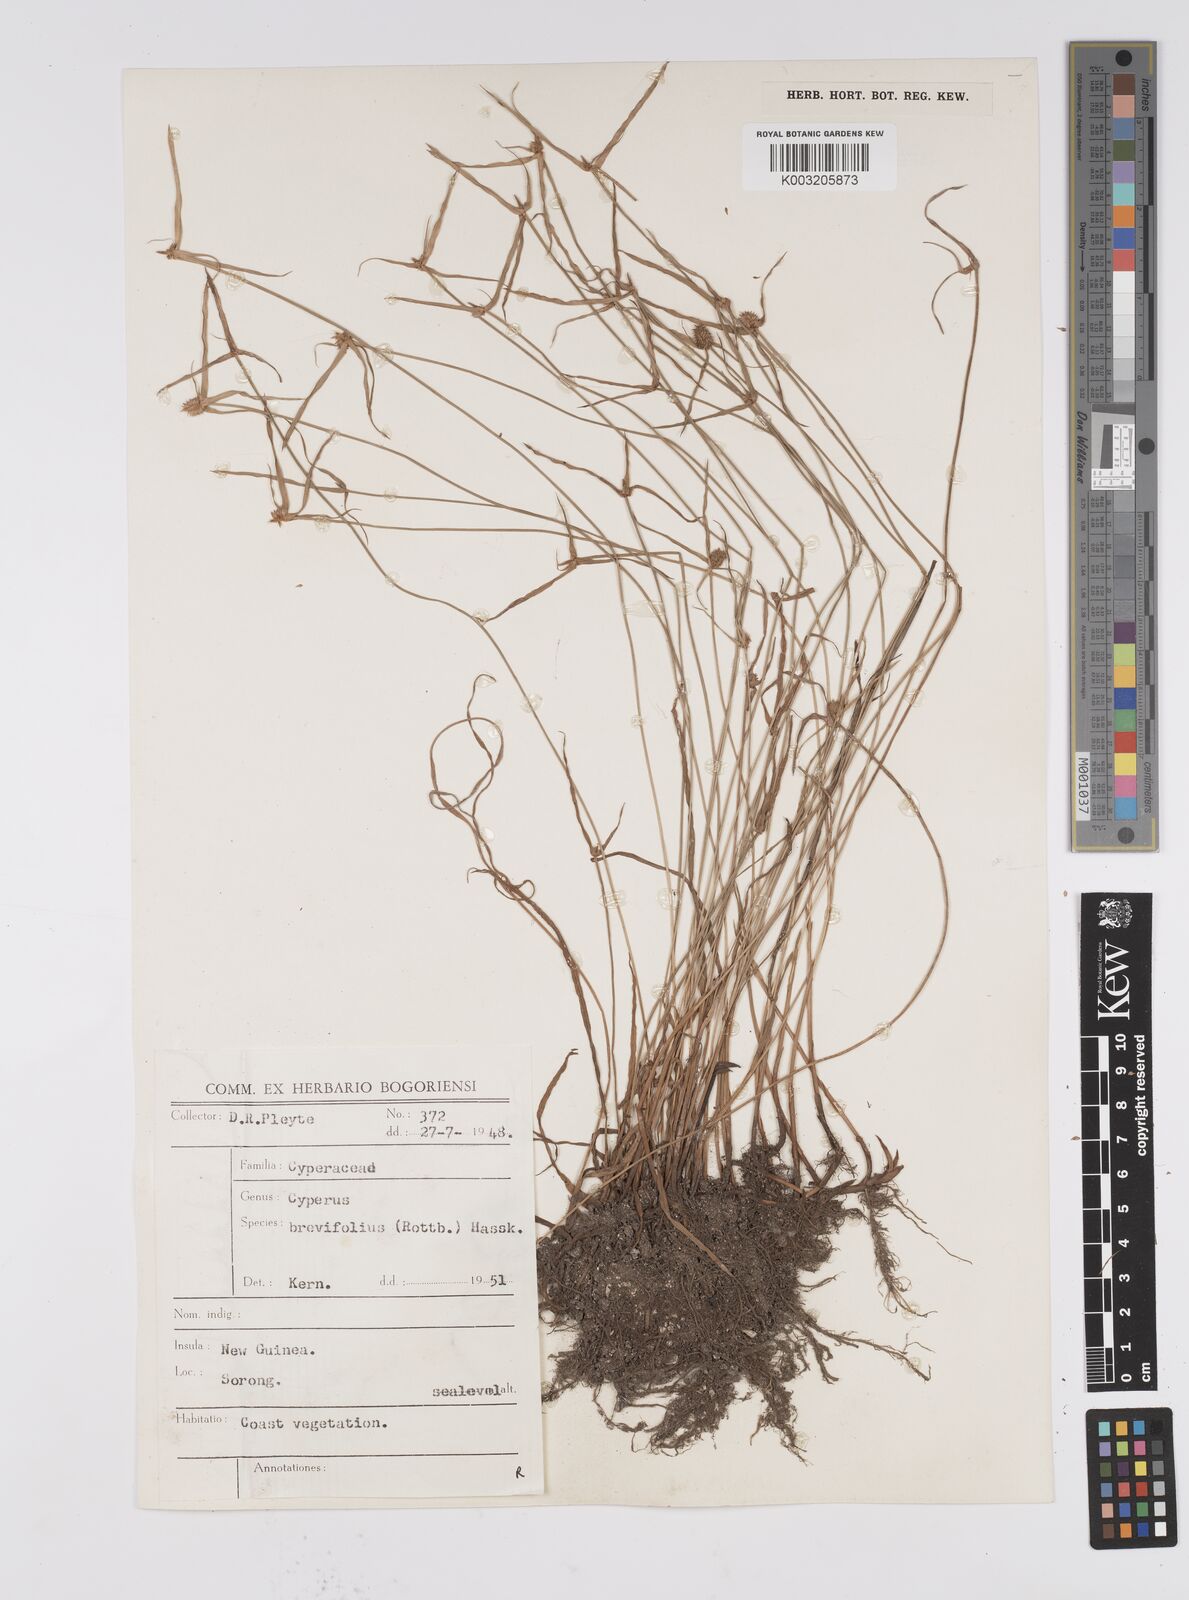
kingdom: Plantae
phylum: Tracheophyta
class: Liliopsida
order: Poales
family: Cyperaceae
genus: Cyperus
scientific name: Cyperus brevifolius
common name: Globe kyllinga
